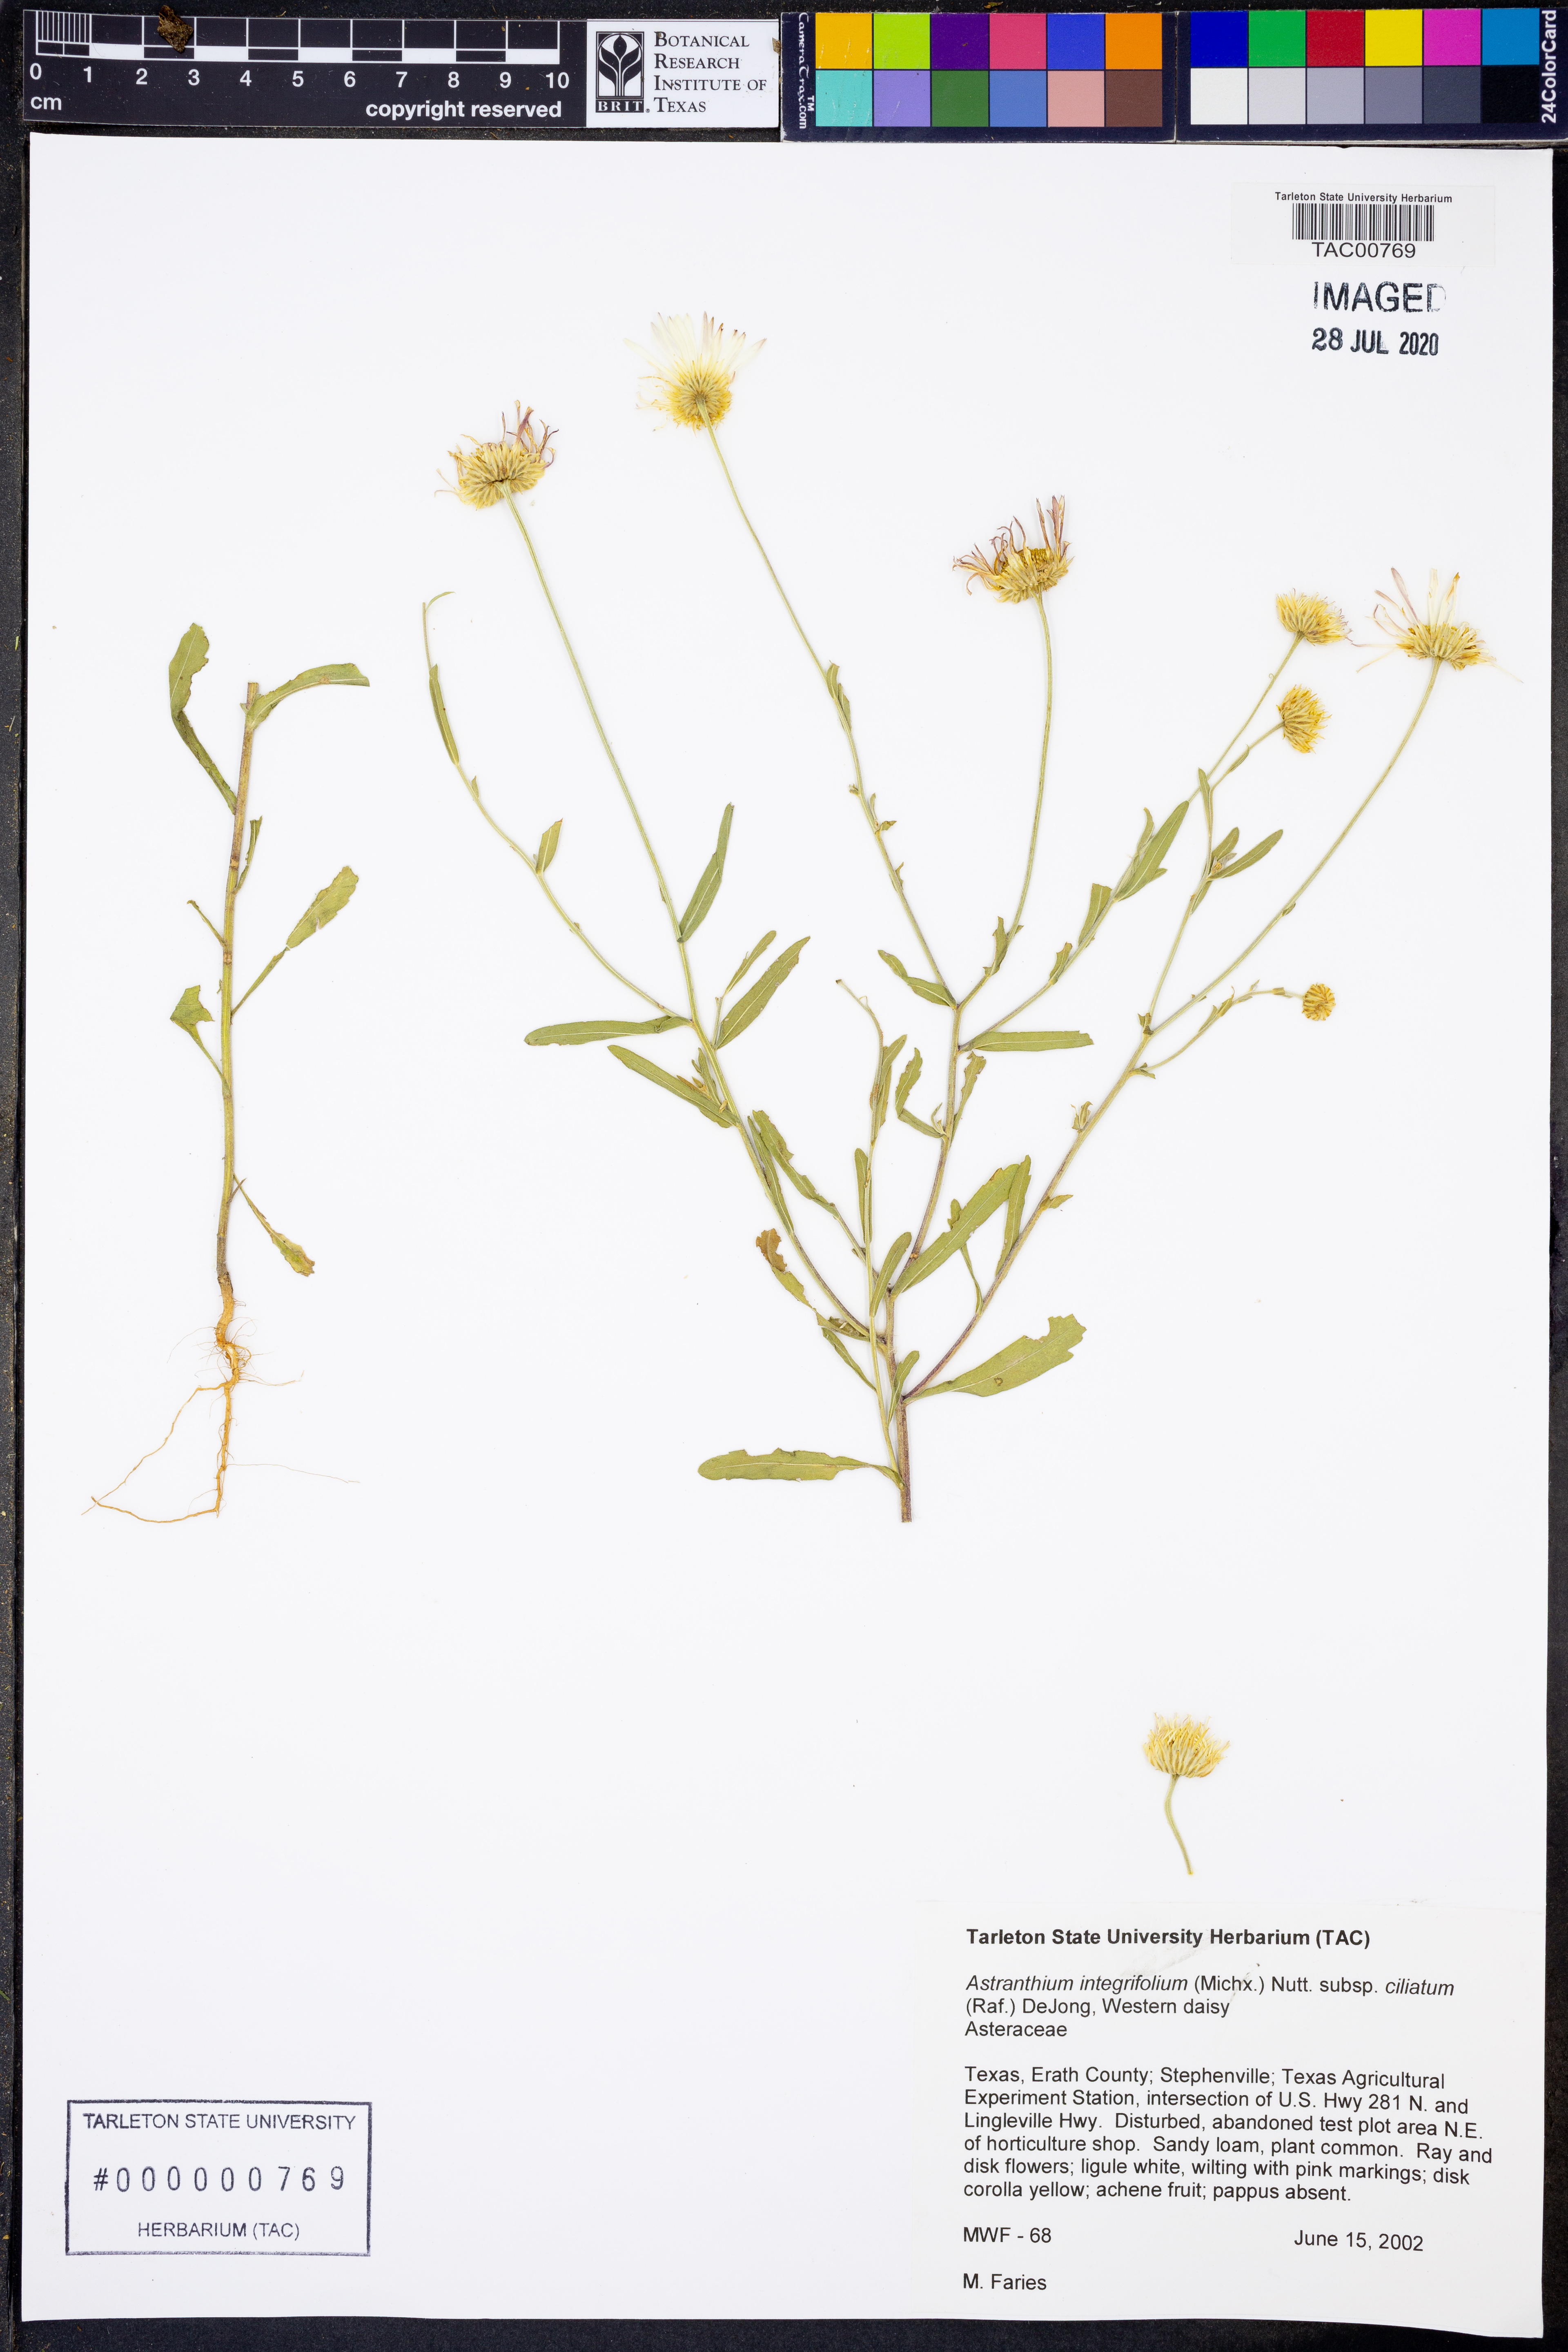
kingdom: Plantae
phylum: Tracheophyta
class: Magnoliopsida
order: Asterales
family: Asteraceae
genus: Astranthium
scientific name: Astranthium ciliatum
